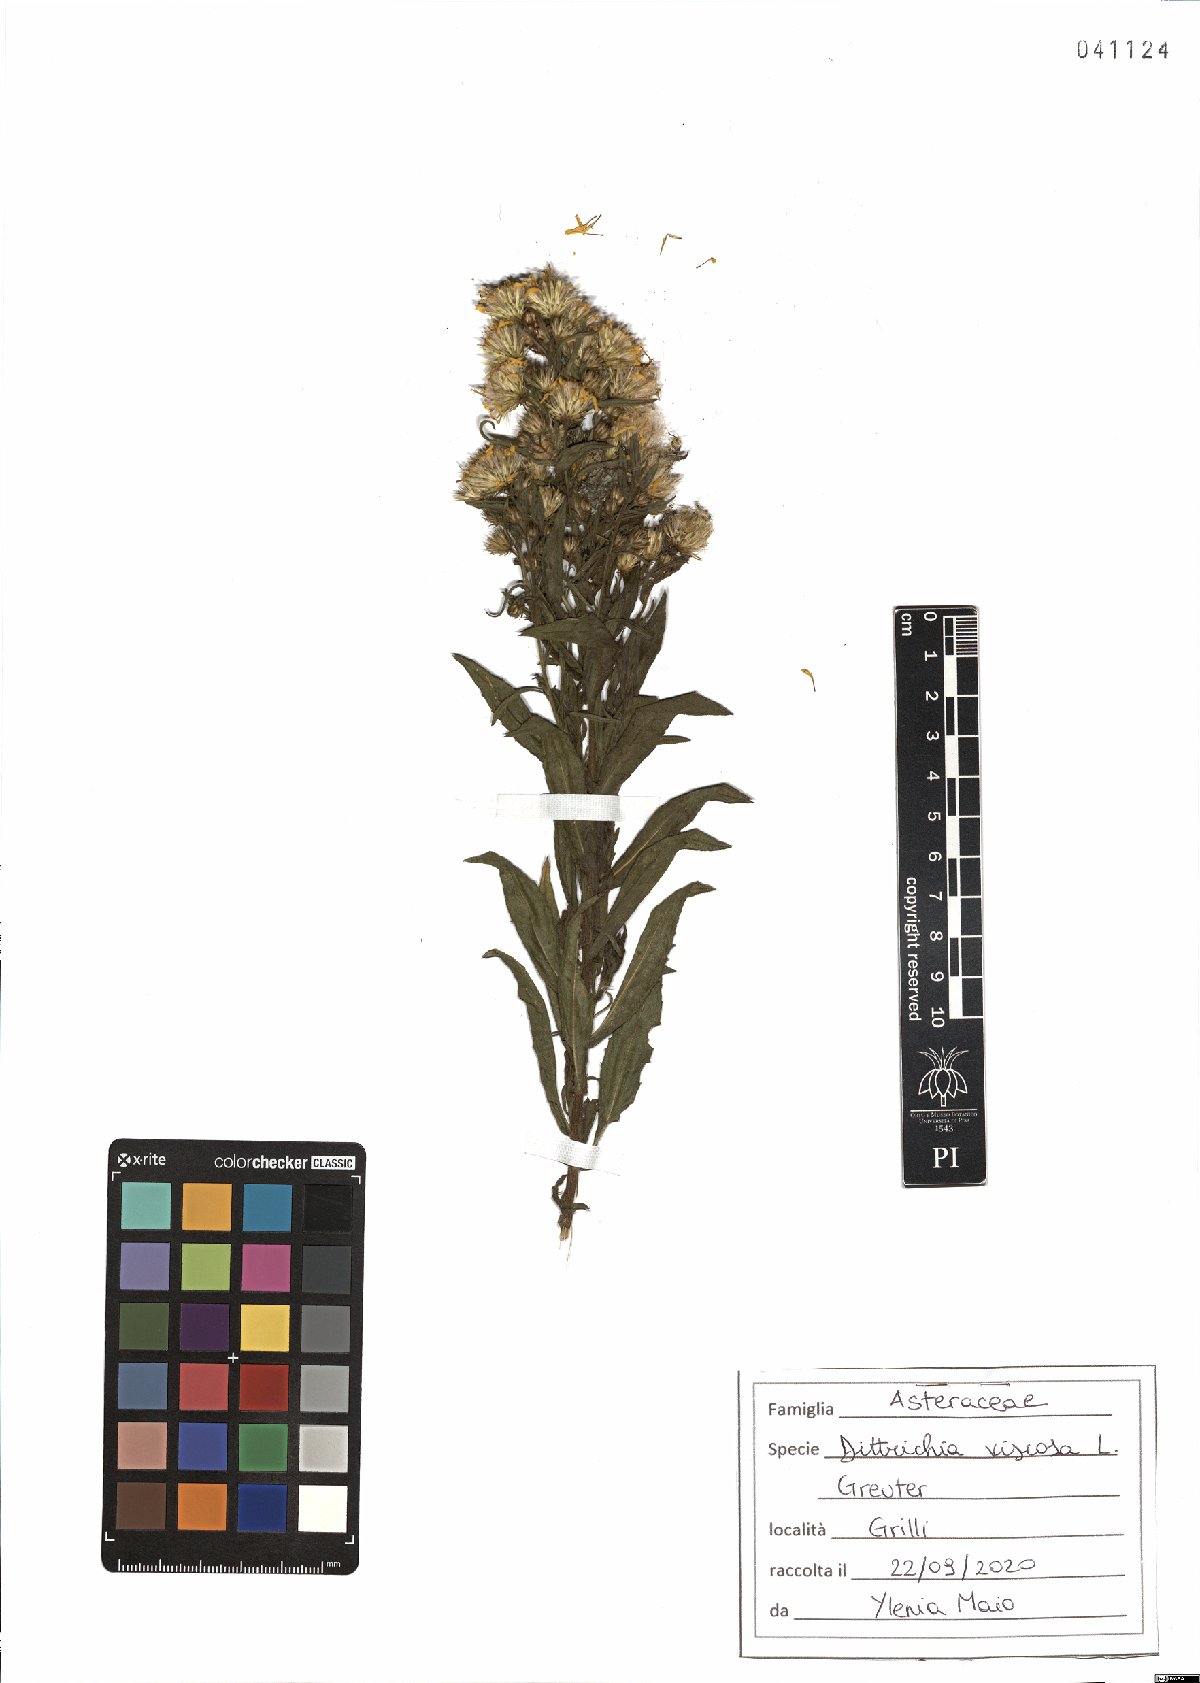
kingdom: Plantae
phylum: Tracheophyta
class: Magnoliopsida
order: Asterales
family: Asteraceae
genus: Dittrichia
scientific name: Dittrichia viscosa
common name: Woody fleabane
